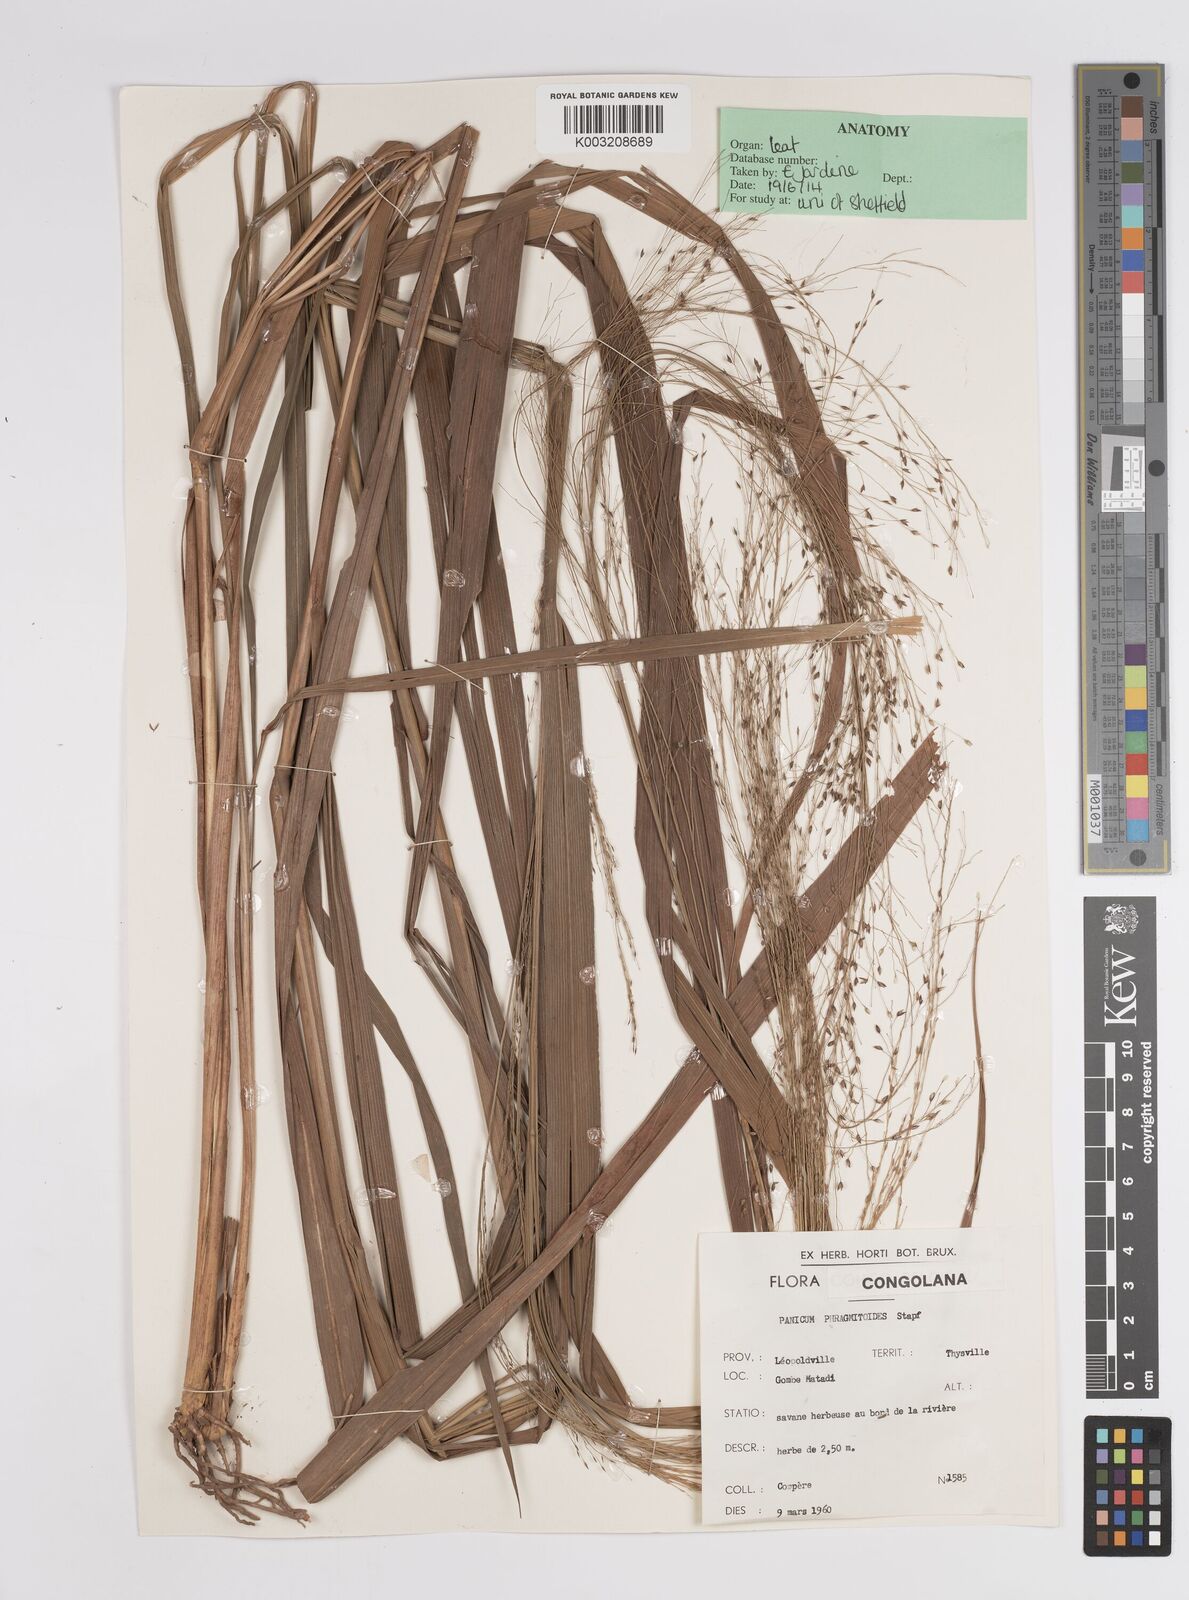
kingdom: Plantae
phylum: Tracheophyta
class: Liliopsida
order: Poales
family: Poaceae
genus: Panicum
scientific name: Panicum phragmitoides
